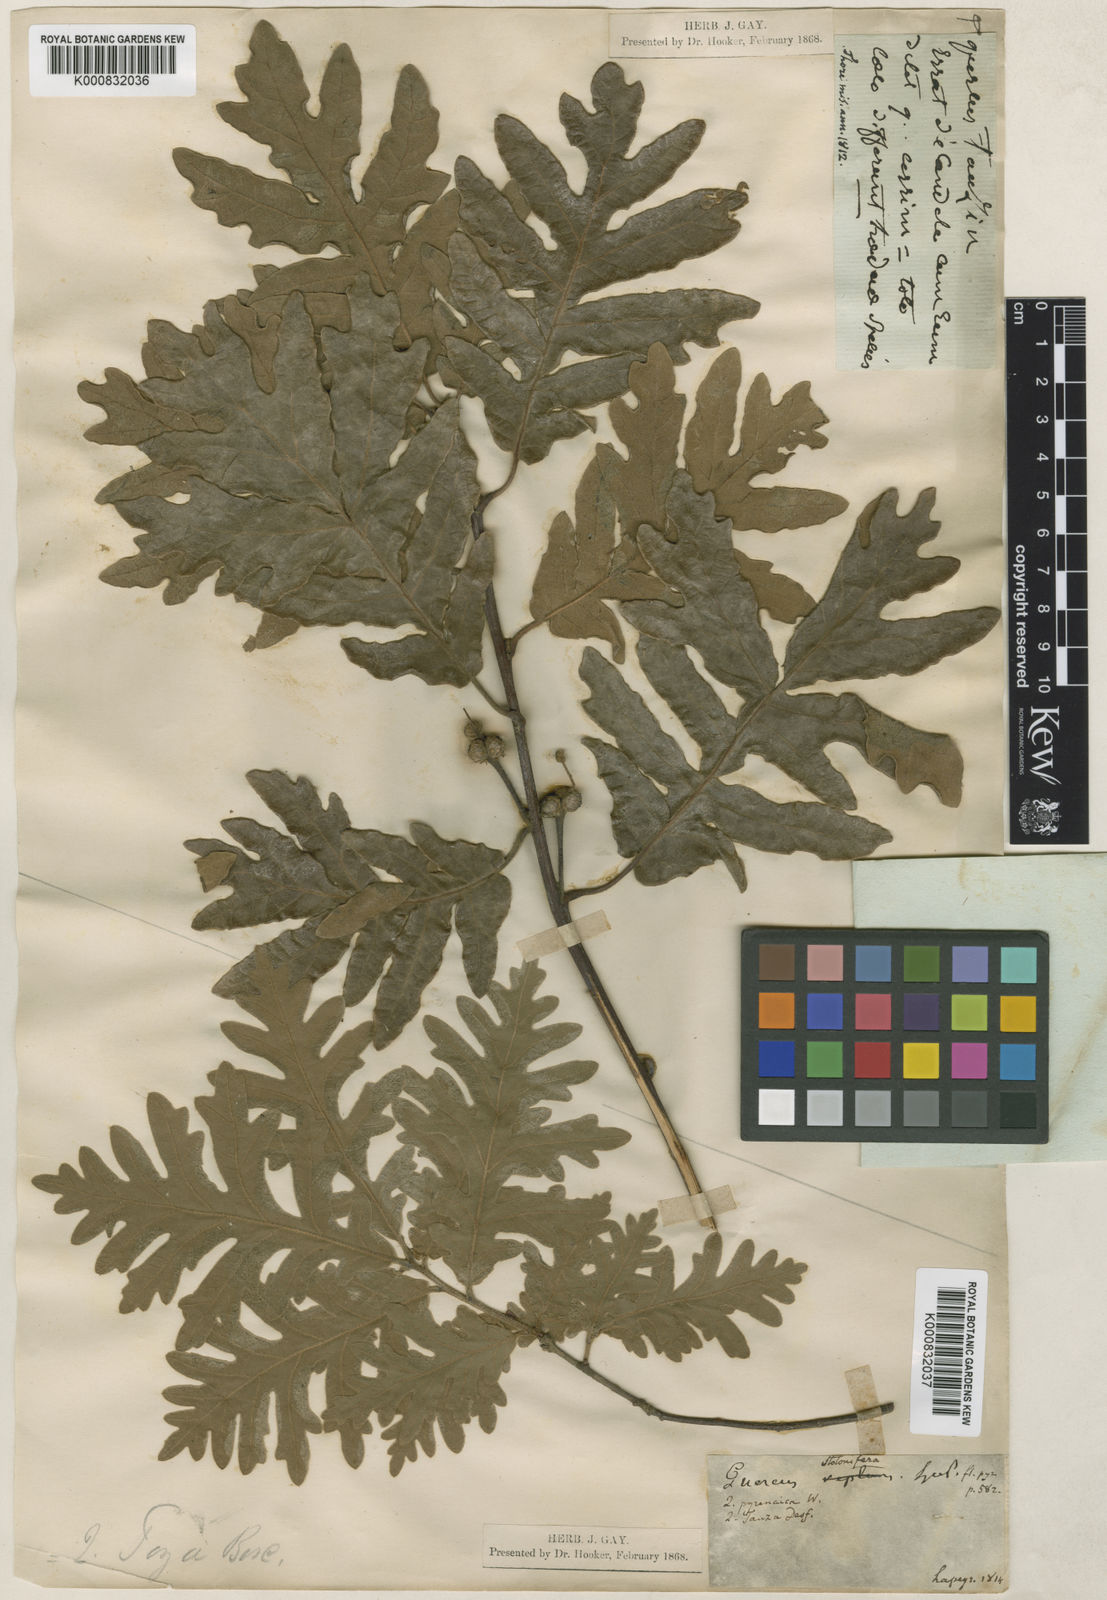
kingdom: Plantae
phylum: Tracheophyta
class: Magnoliopsida
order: Fagales
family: Fagaceae
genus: Quercus
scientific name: Quercus pyrenaica
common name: Pyrenean oak
